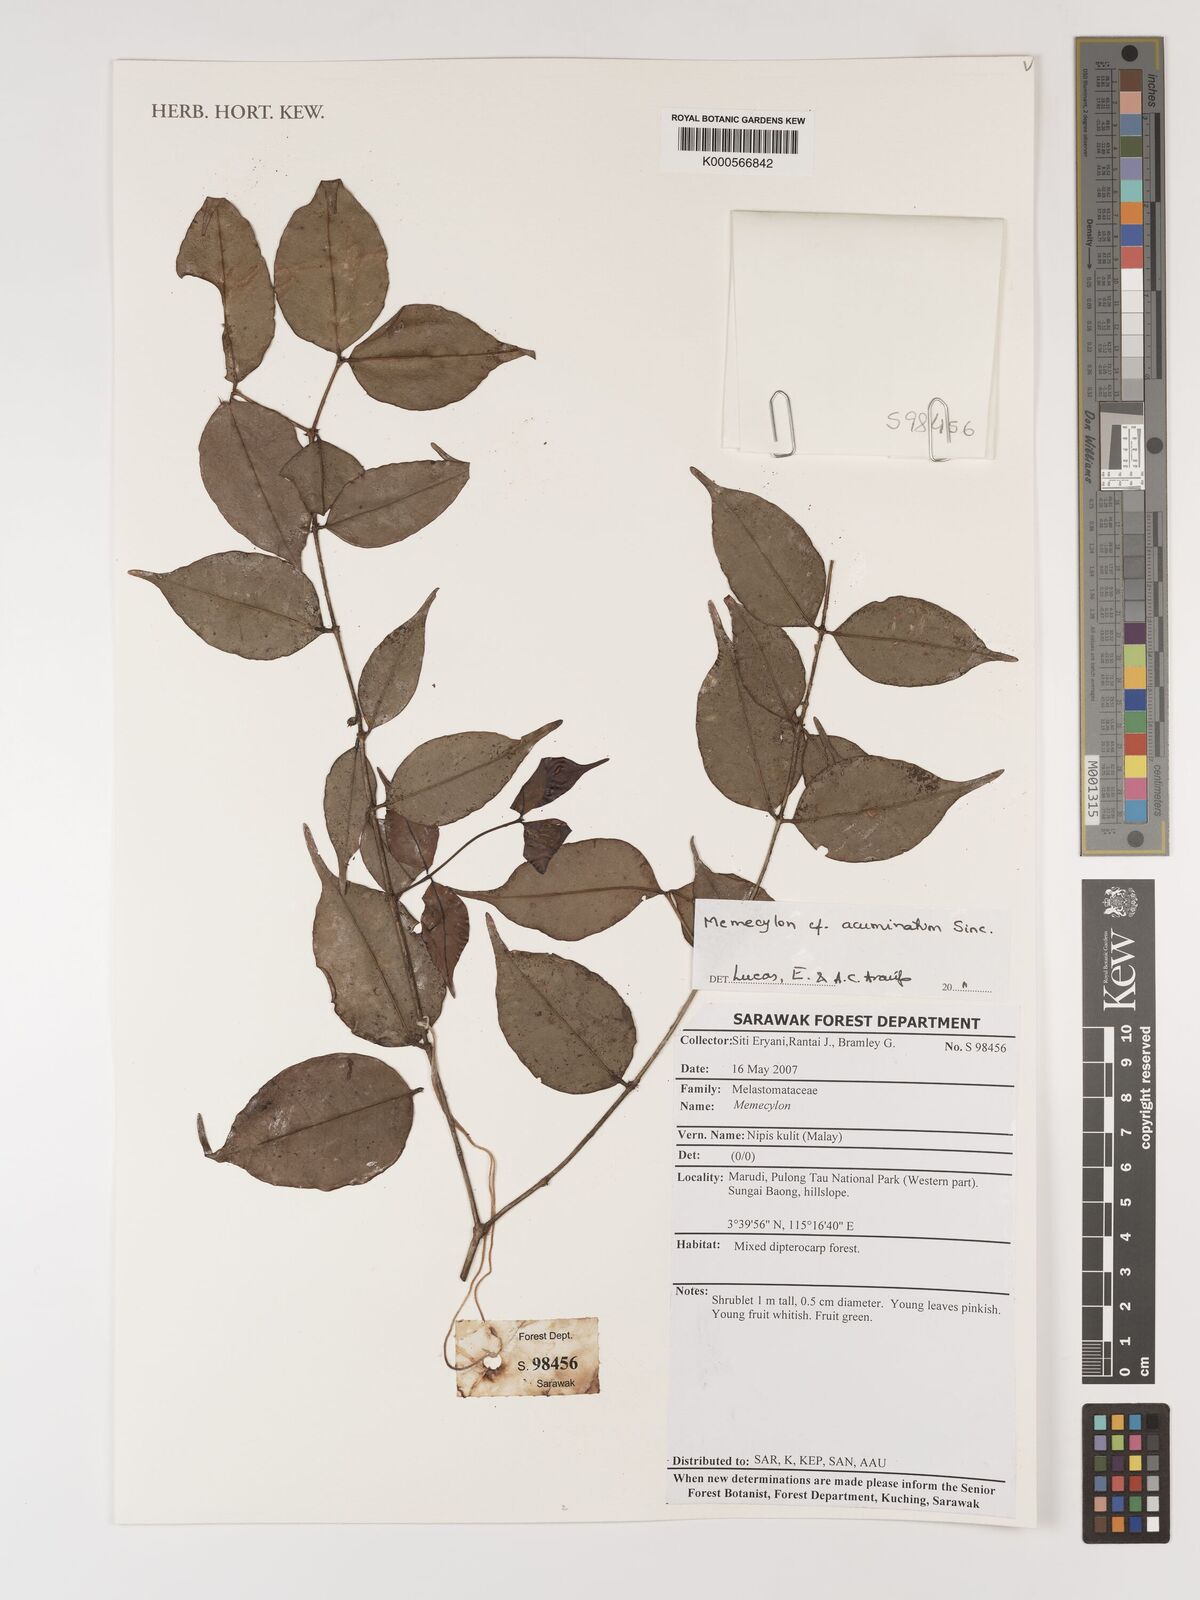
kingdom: Plantae
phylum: Tracheophyta
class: Magnoliopsida
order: Myrtales
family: Melastomataceae
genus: Memecylon
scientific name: Memecylon
